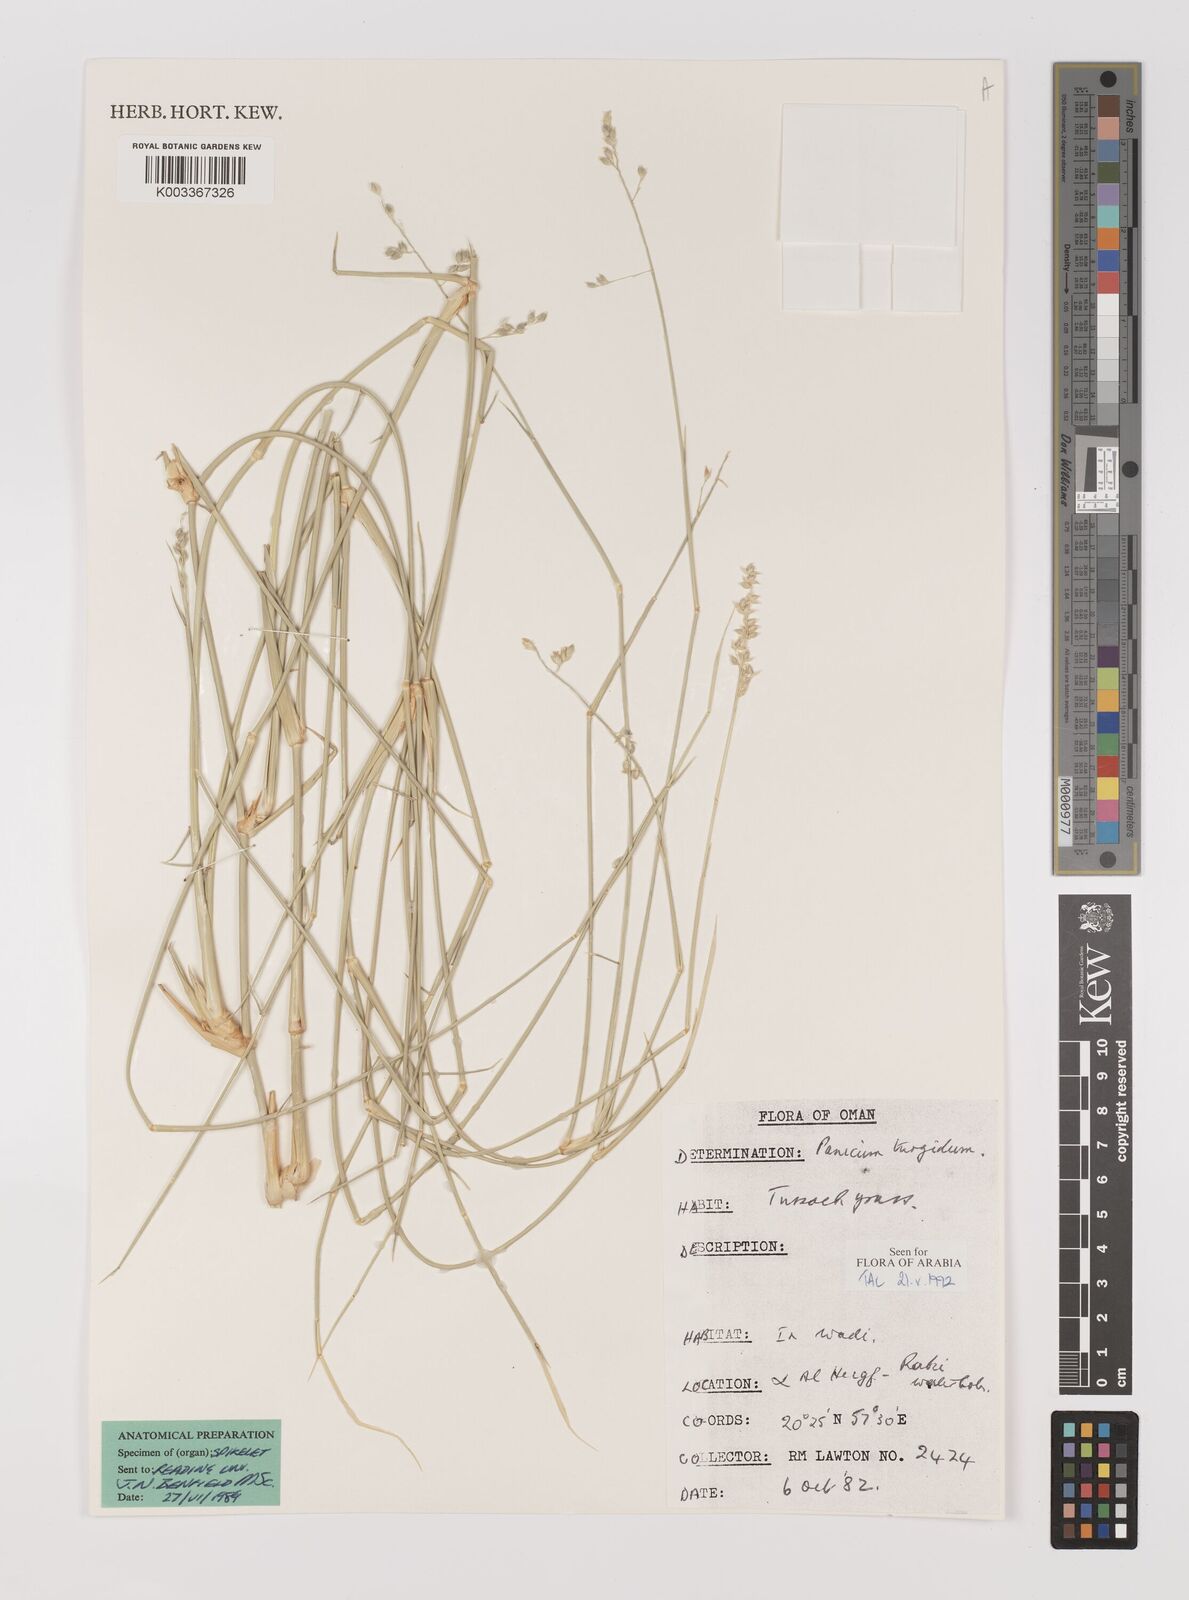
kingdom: Plantae
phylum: Tracheophyta
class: Liliopsida
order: Poales
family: Poaceae
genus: Panicum
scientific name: Panicum turgidum
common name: Desert grass
